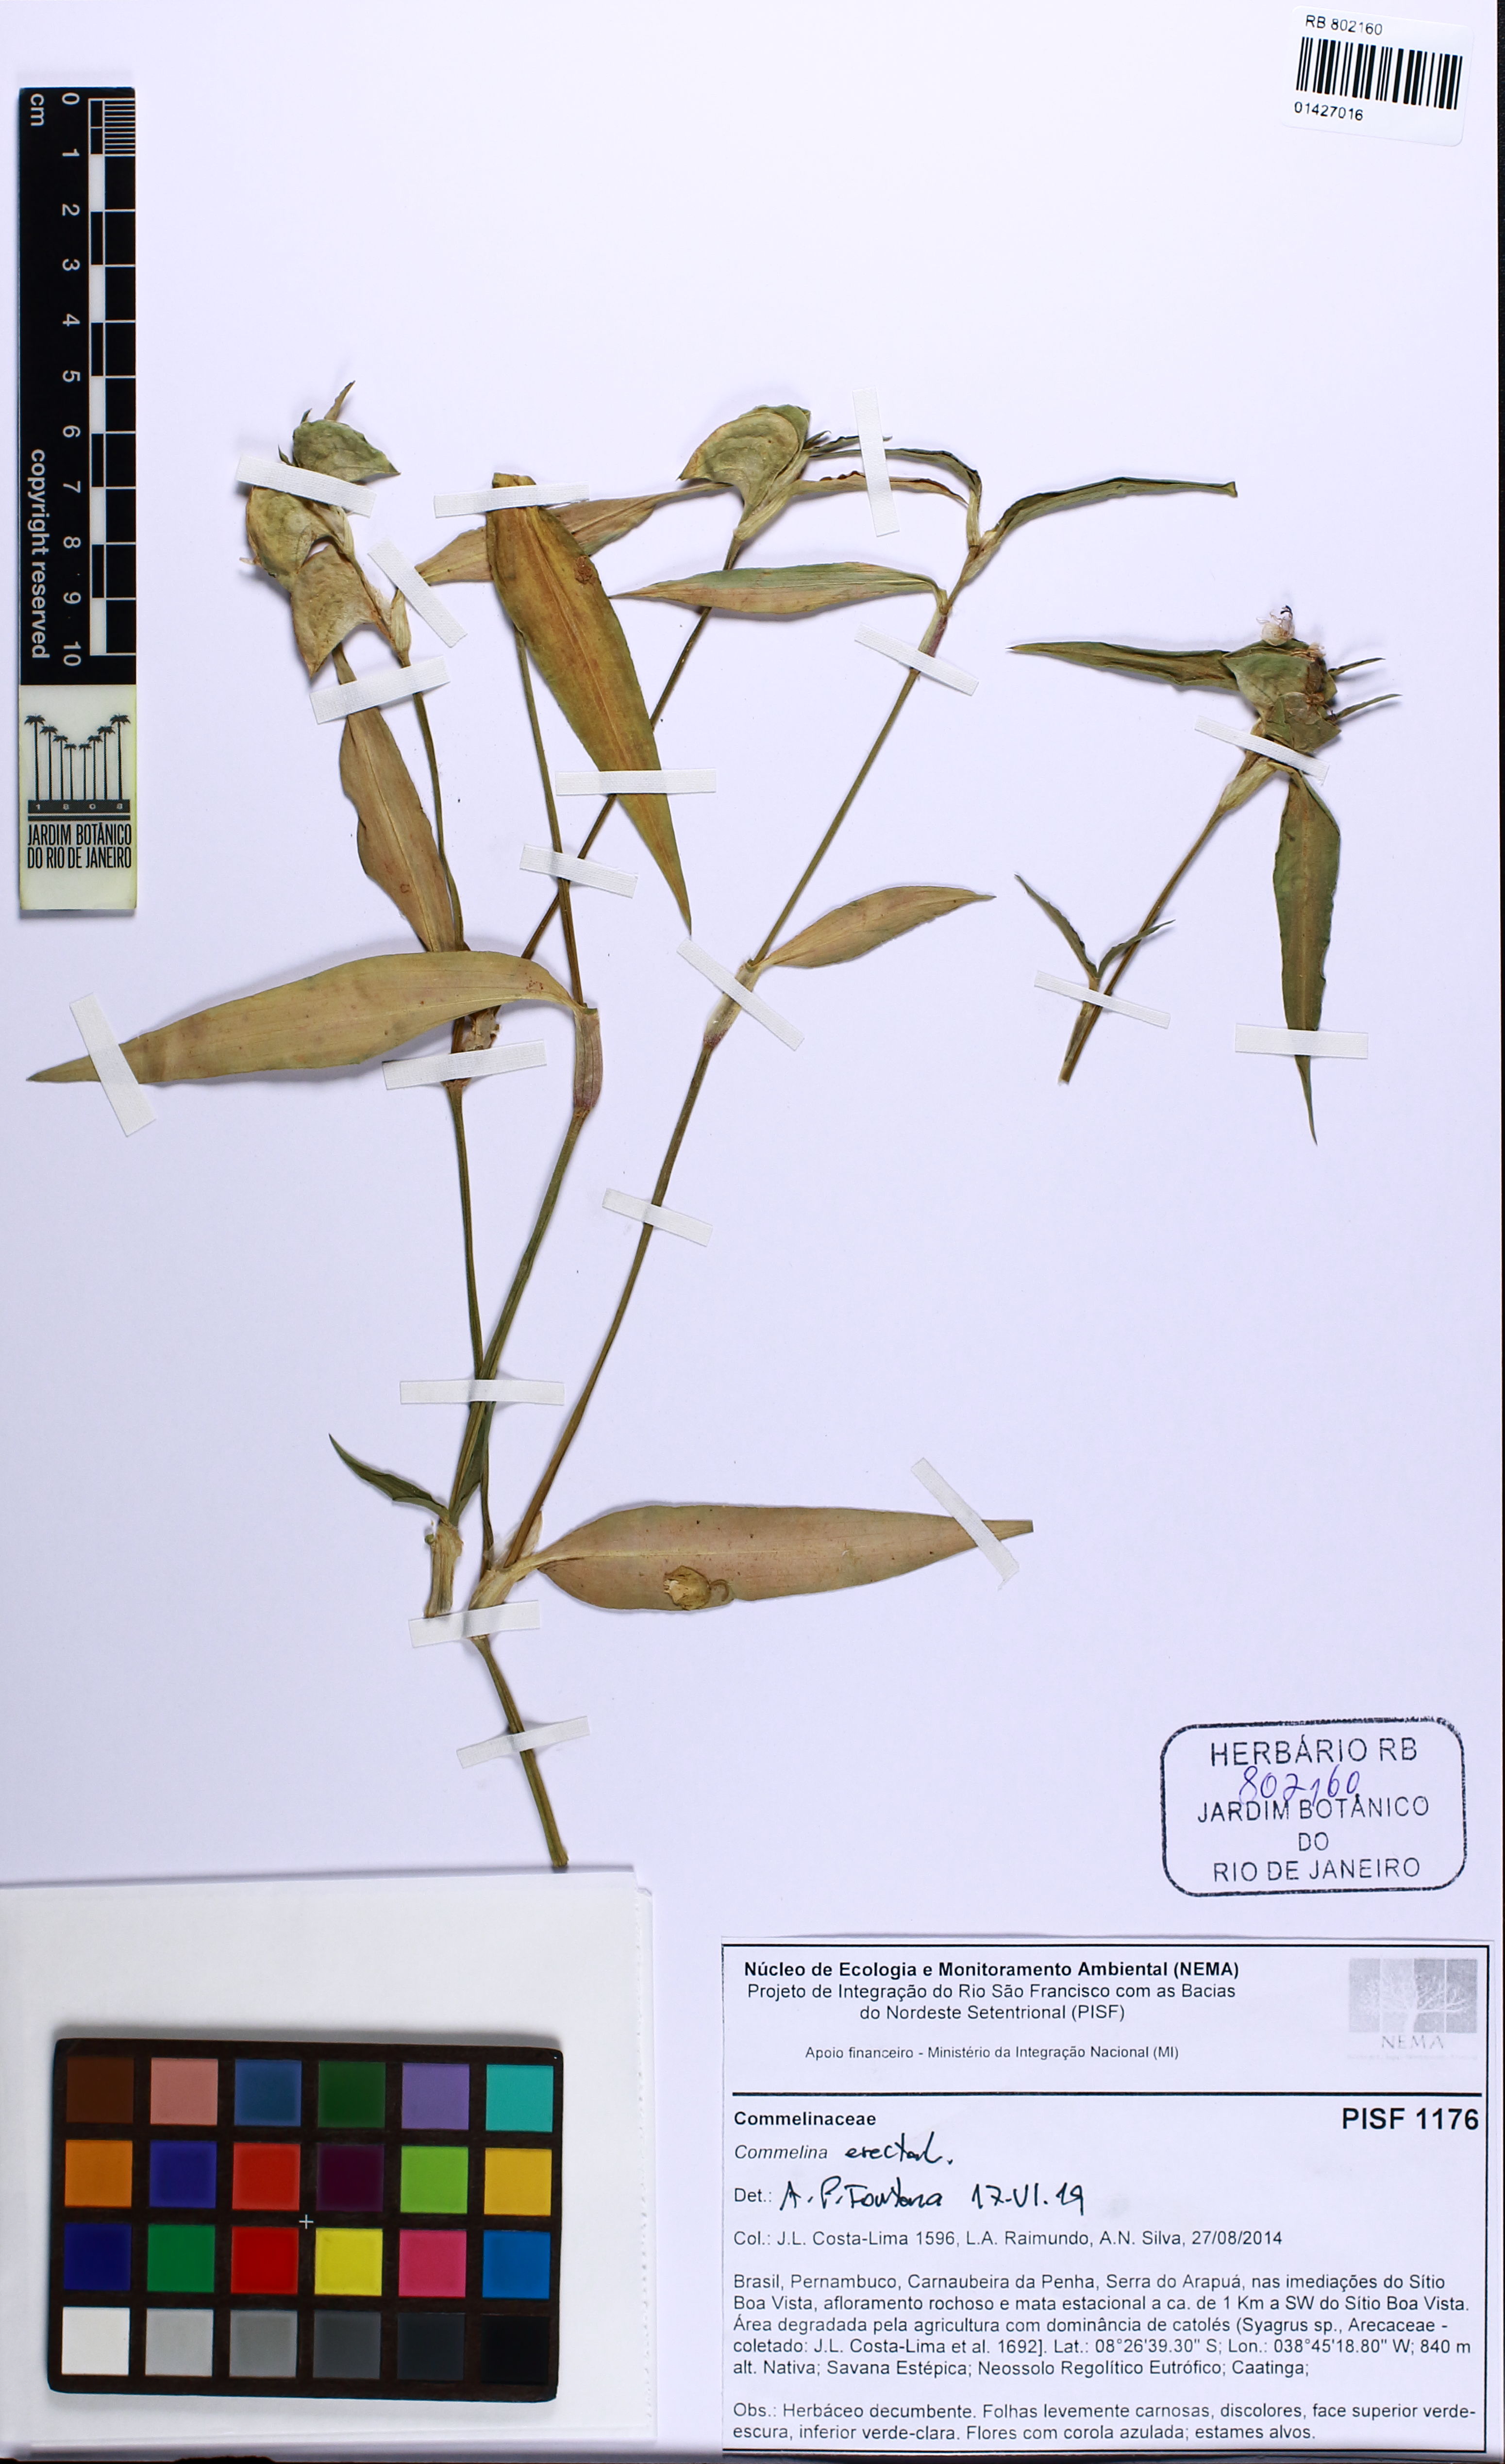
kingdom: Plantae
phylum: Tracheophyta
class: Liliopsida
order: Commelinales
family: Commelinaceae
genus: Commelina
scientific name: Commelina erecta
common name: Blousel blommetjie
